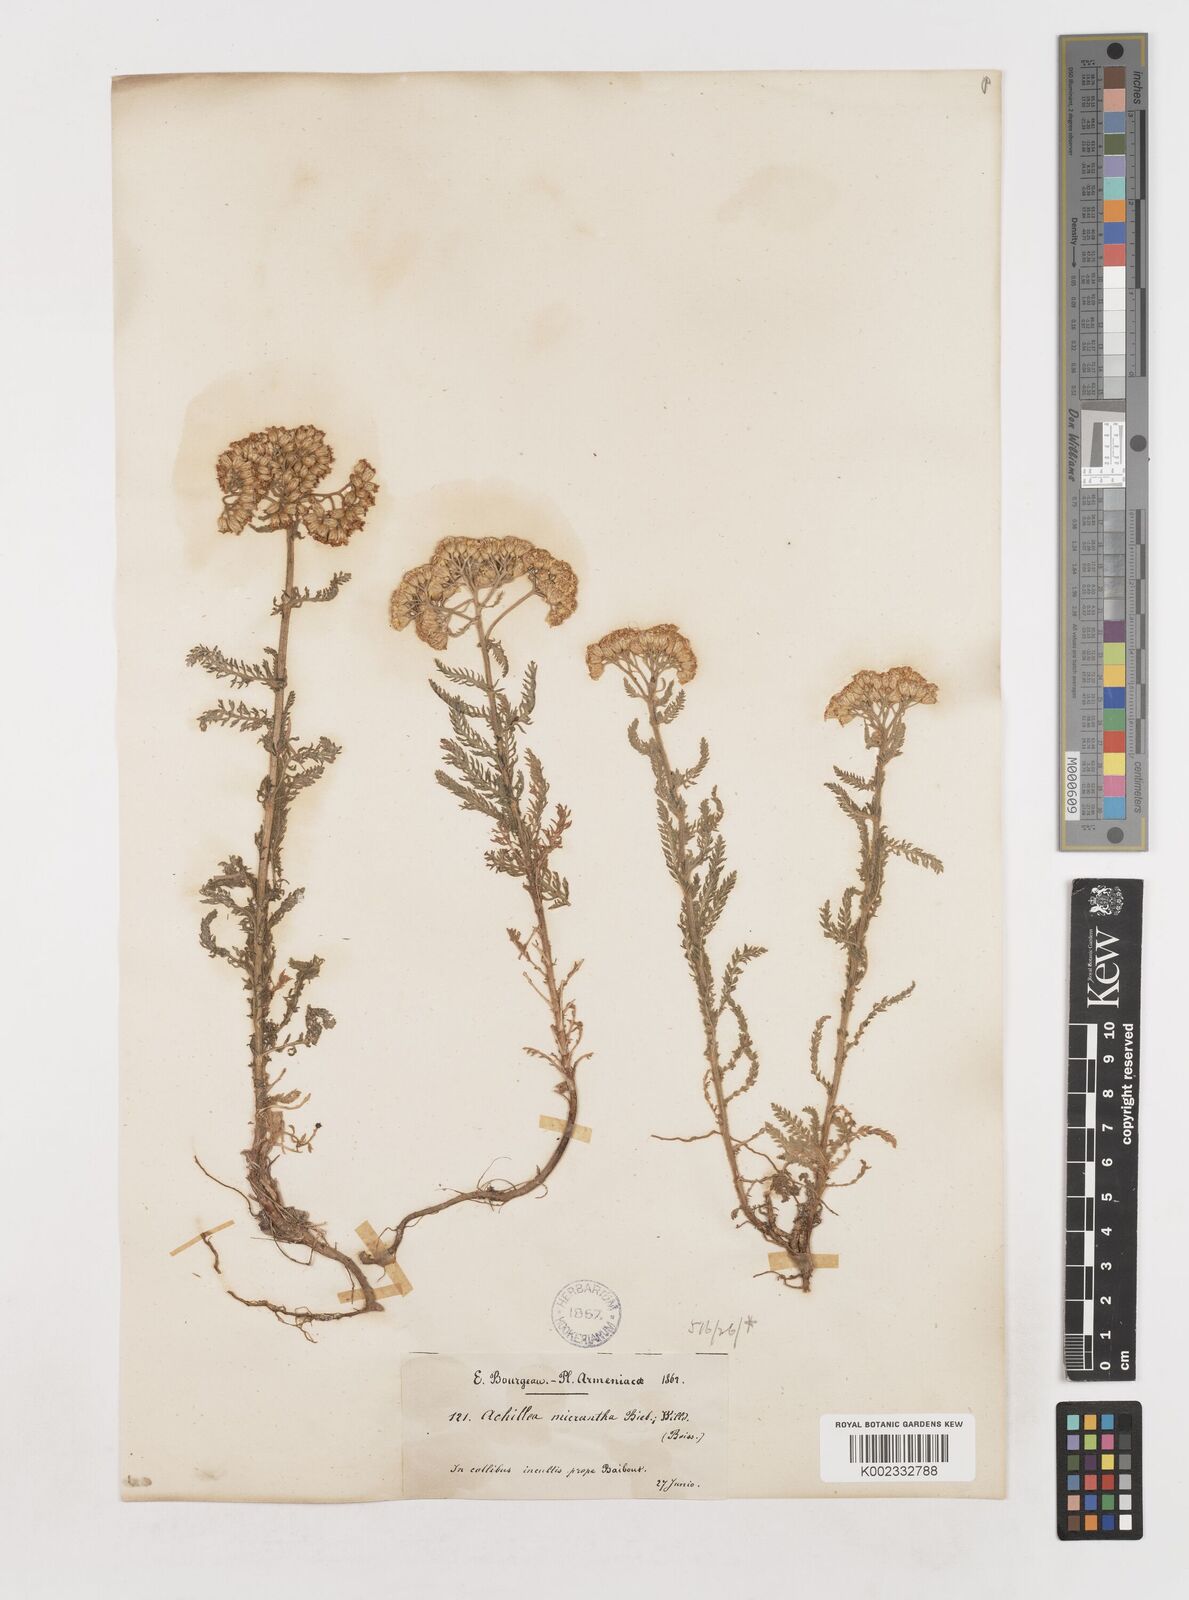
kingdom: Plantae
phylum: Tracheophyta
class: Magnoliopsida
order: Asterales
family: Asteraceae
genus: Achillea
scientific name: Achillea arabica
